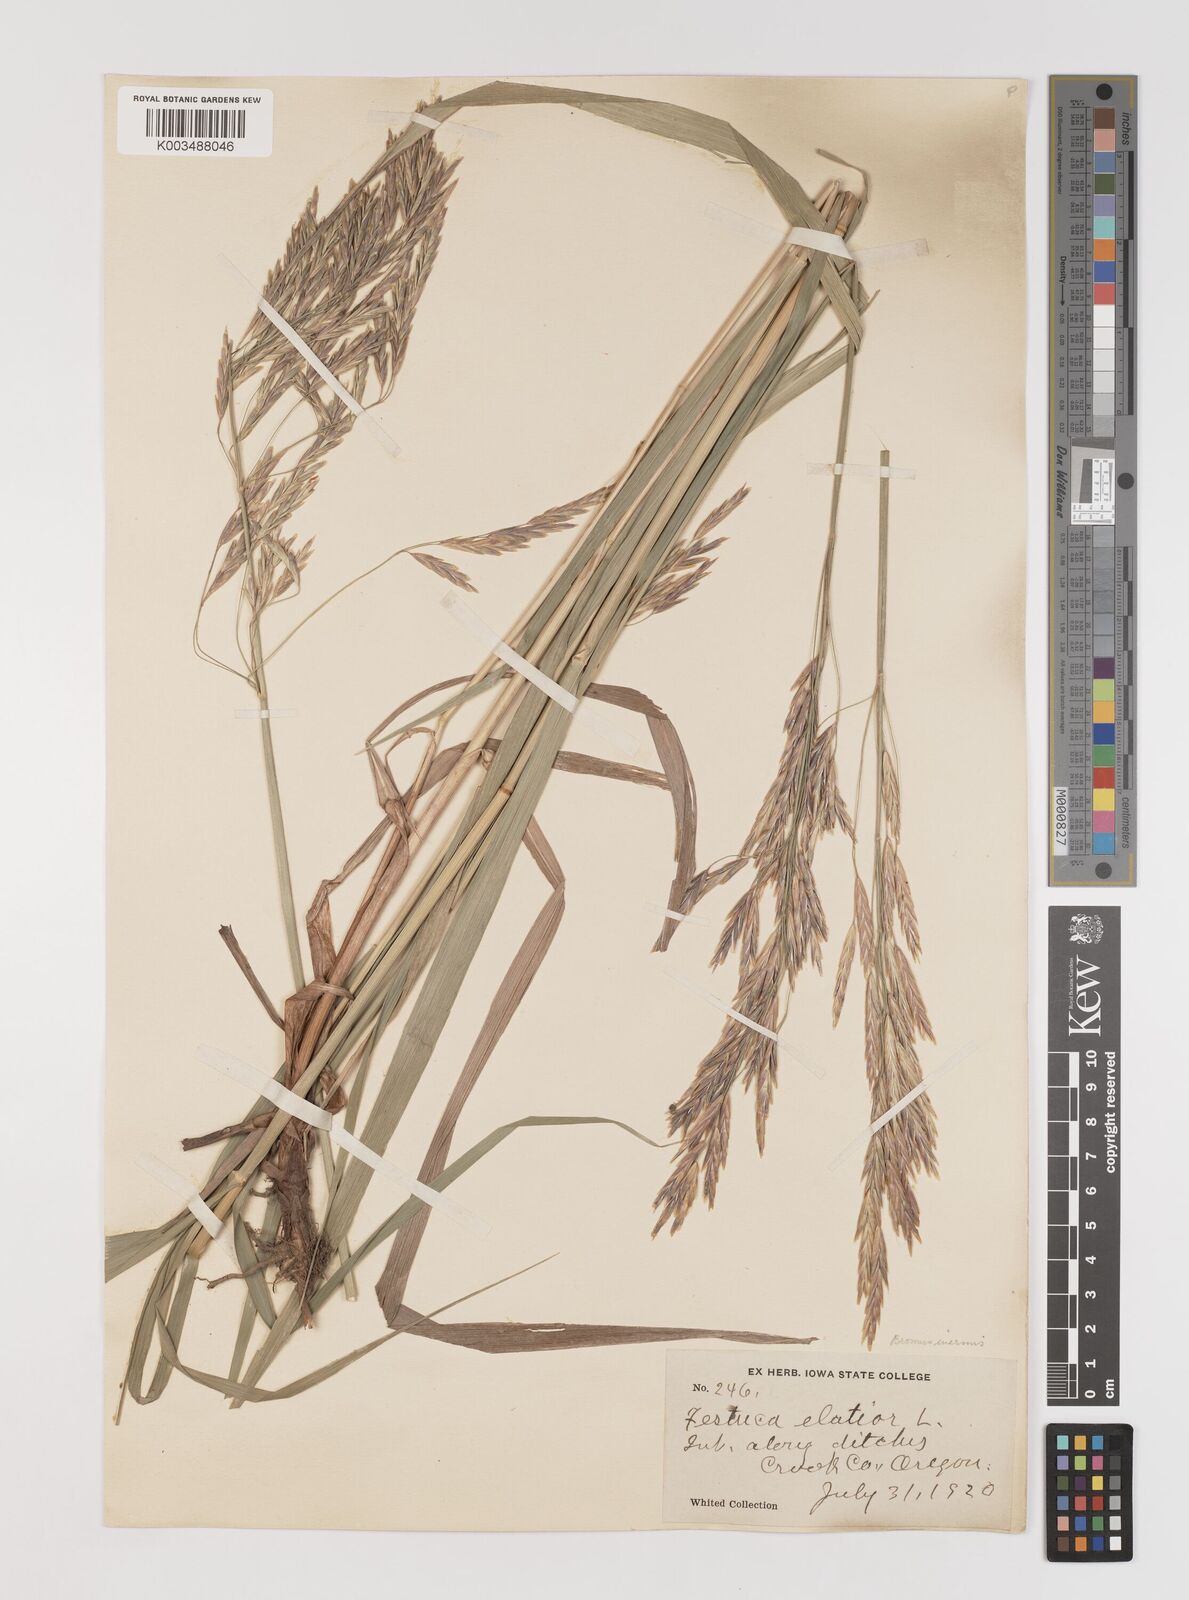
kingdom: Plantae
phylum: Tracheophyta
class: Liliopsida
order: Poales
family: Poaceae
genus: Bromus
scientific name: Bromus inermis
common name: Smooth brome
